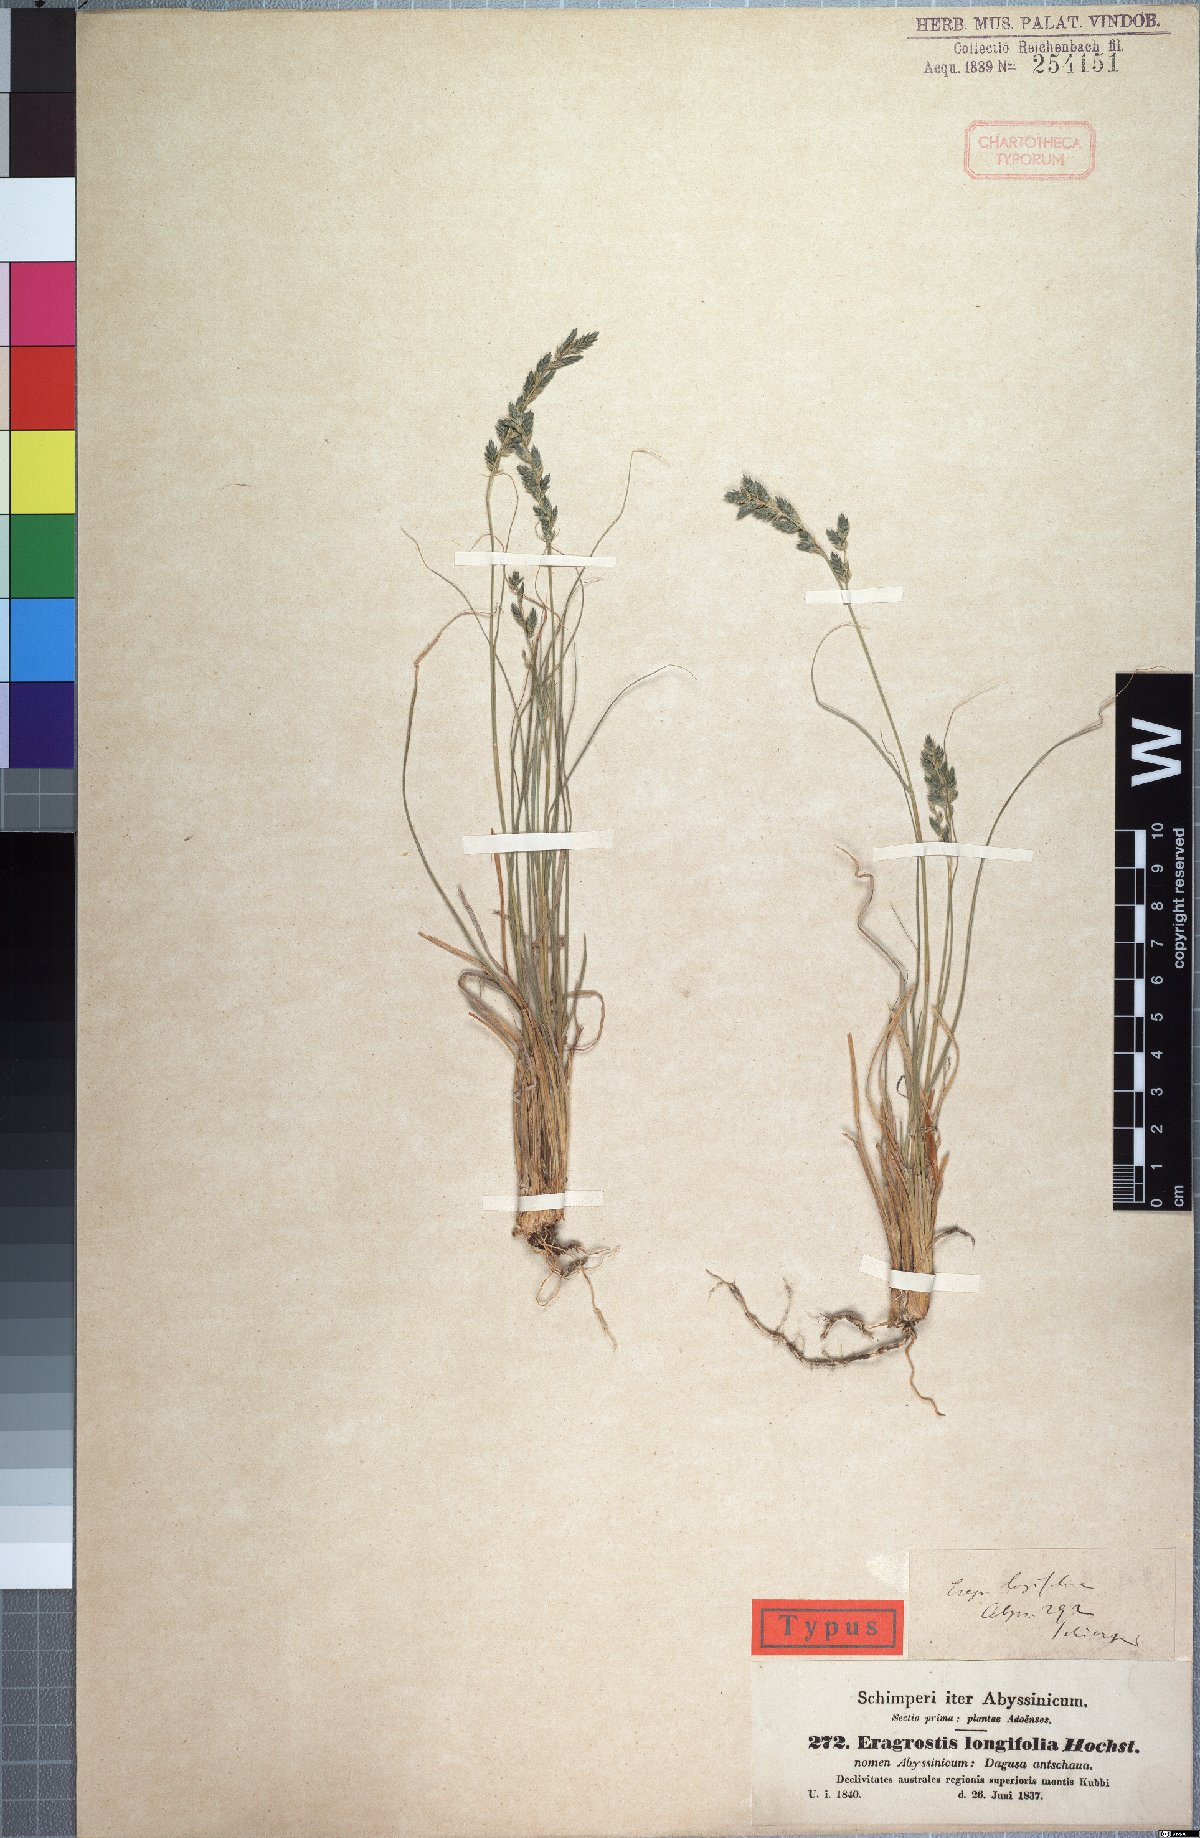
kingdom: Plantae
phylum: Tracheophyta
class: Liliopsida
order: Poales
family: Poaceae
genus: Eragrostis
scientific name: Eragrostis longifolia
